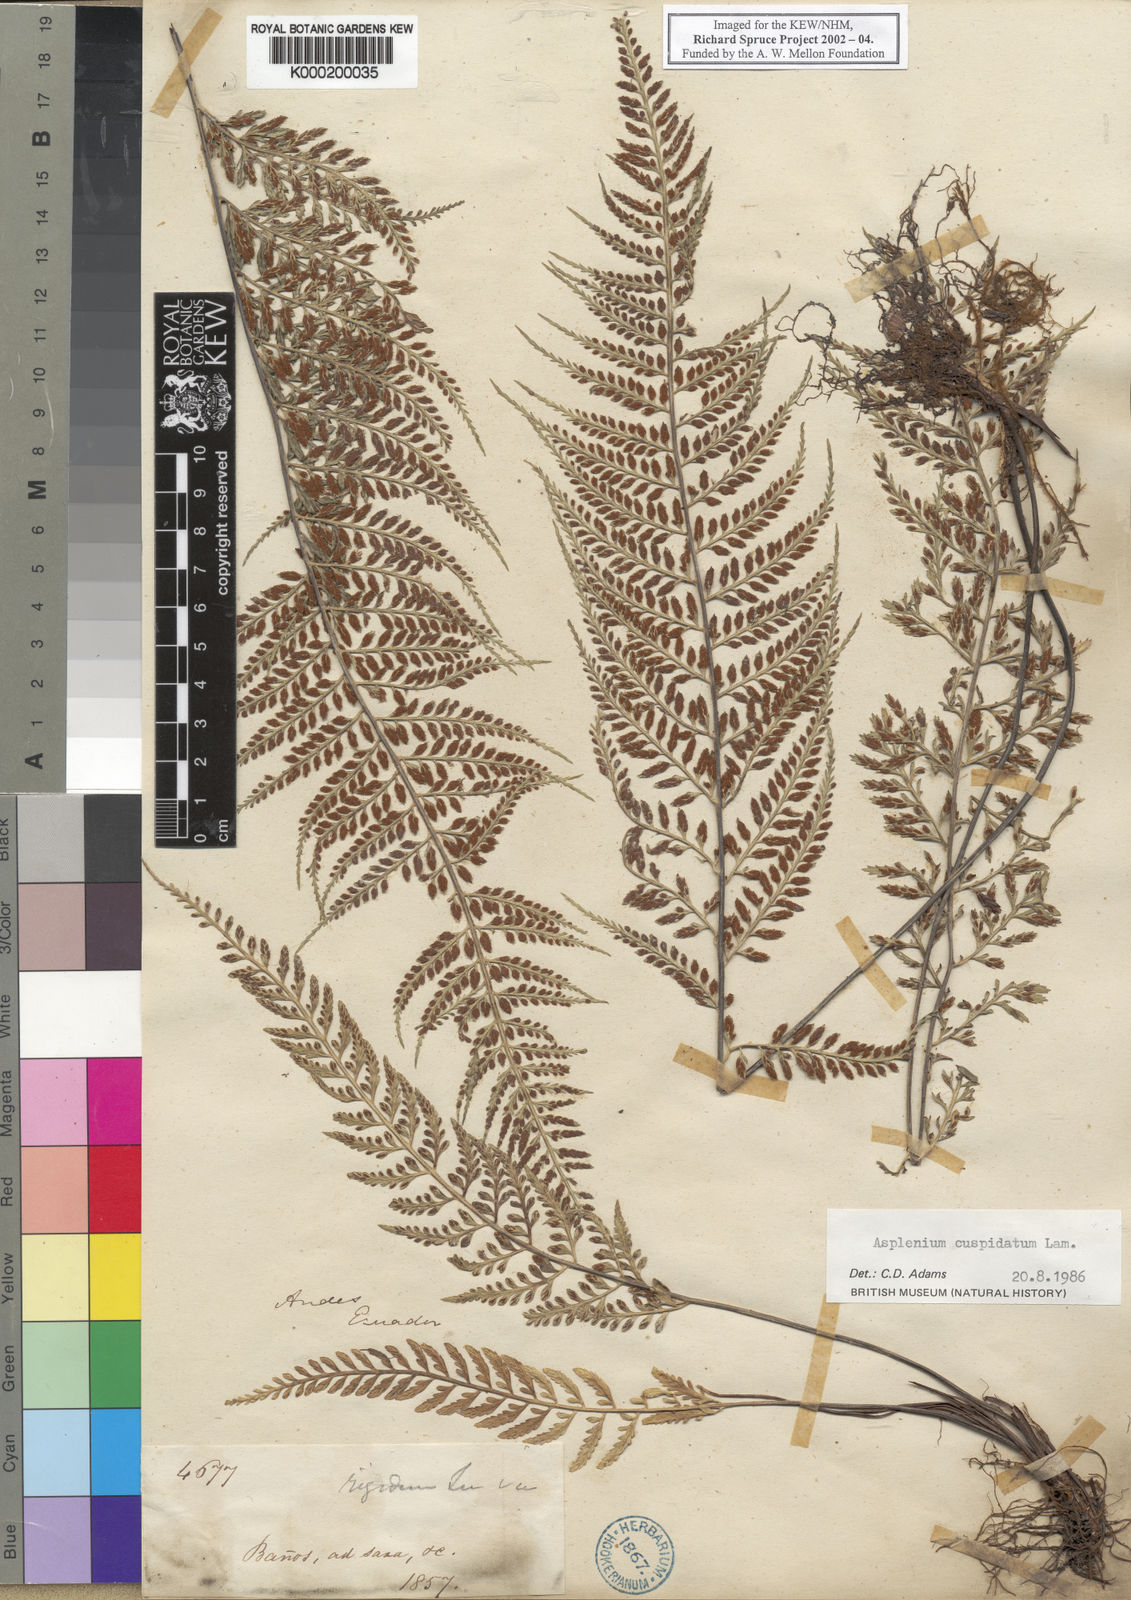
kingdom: Plantae
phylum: Tracheophyta
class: Polypodiopsida
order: Polypodiales
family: Aspleniaceae
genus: Asplenium
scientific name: Asplenium cuspidatum
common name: Eared spleenwort
